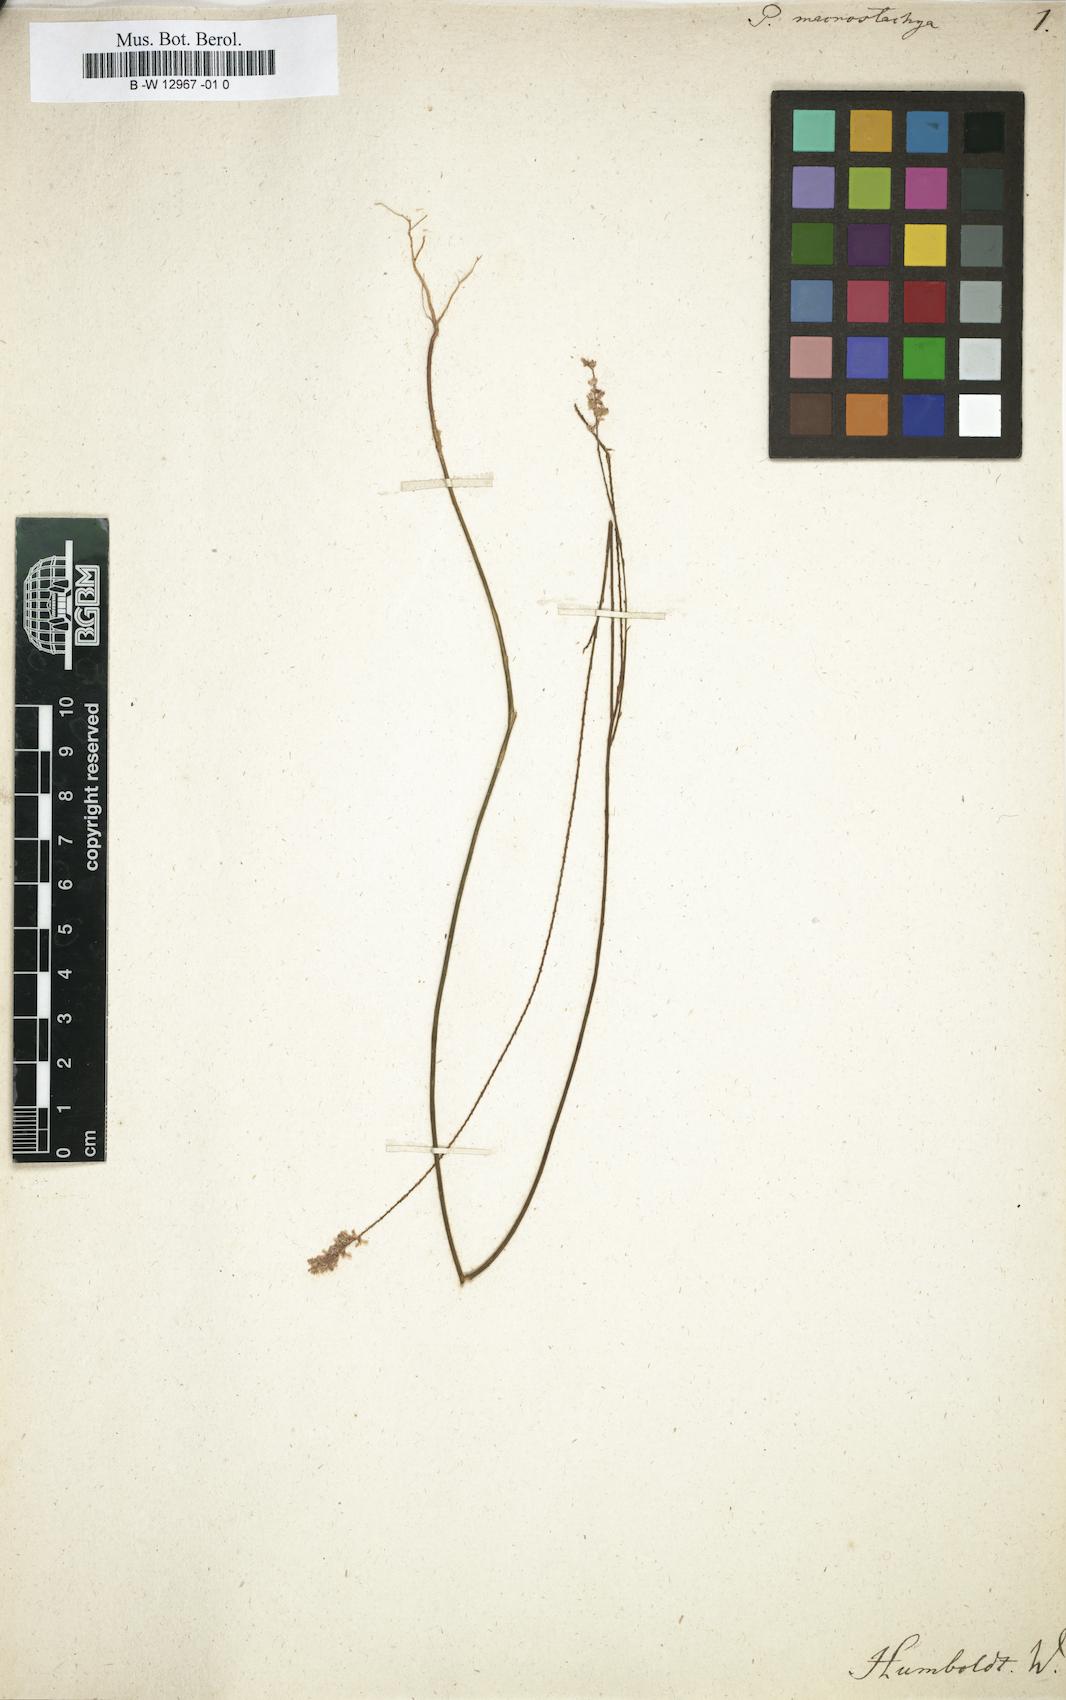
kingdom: Plantae
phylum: Tracheophyta
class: Magnoliopsida
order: Fabales
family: Polygalaceae
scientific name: Polygalaceae
